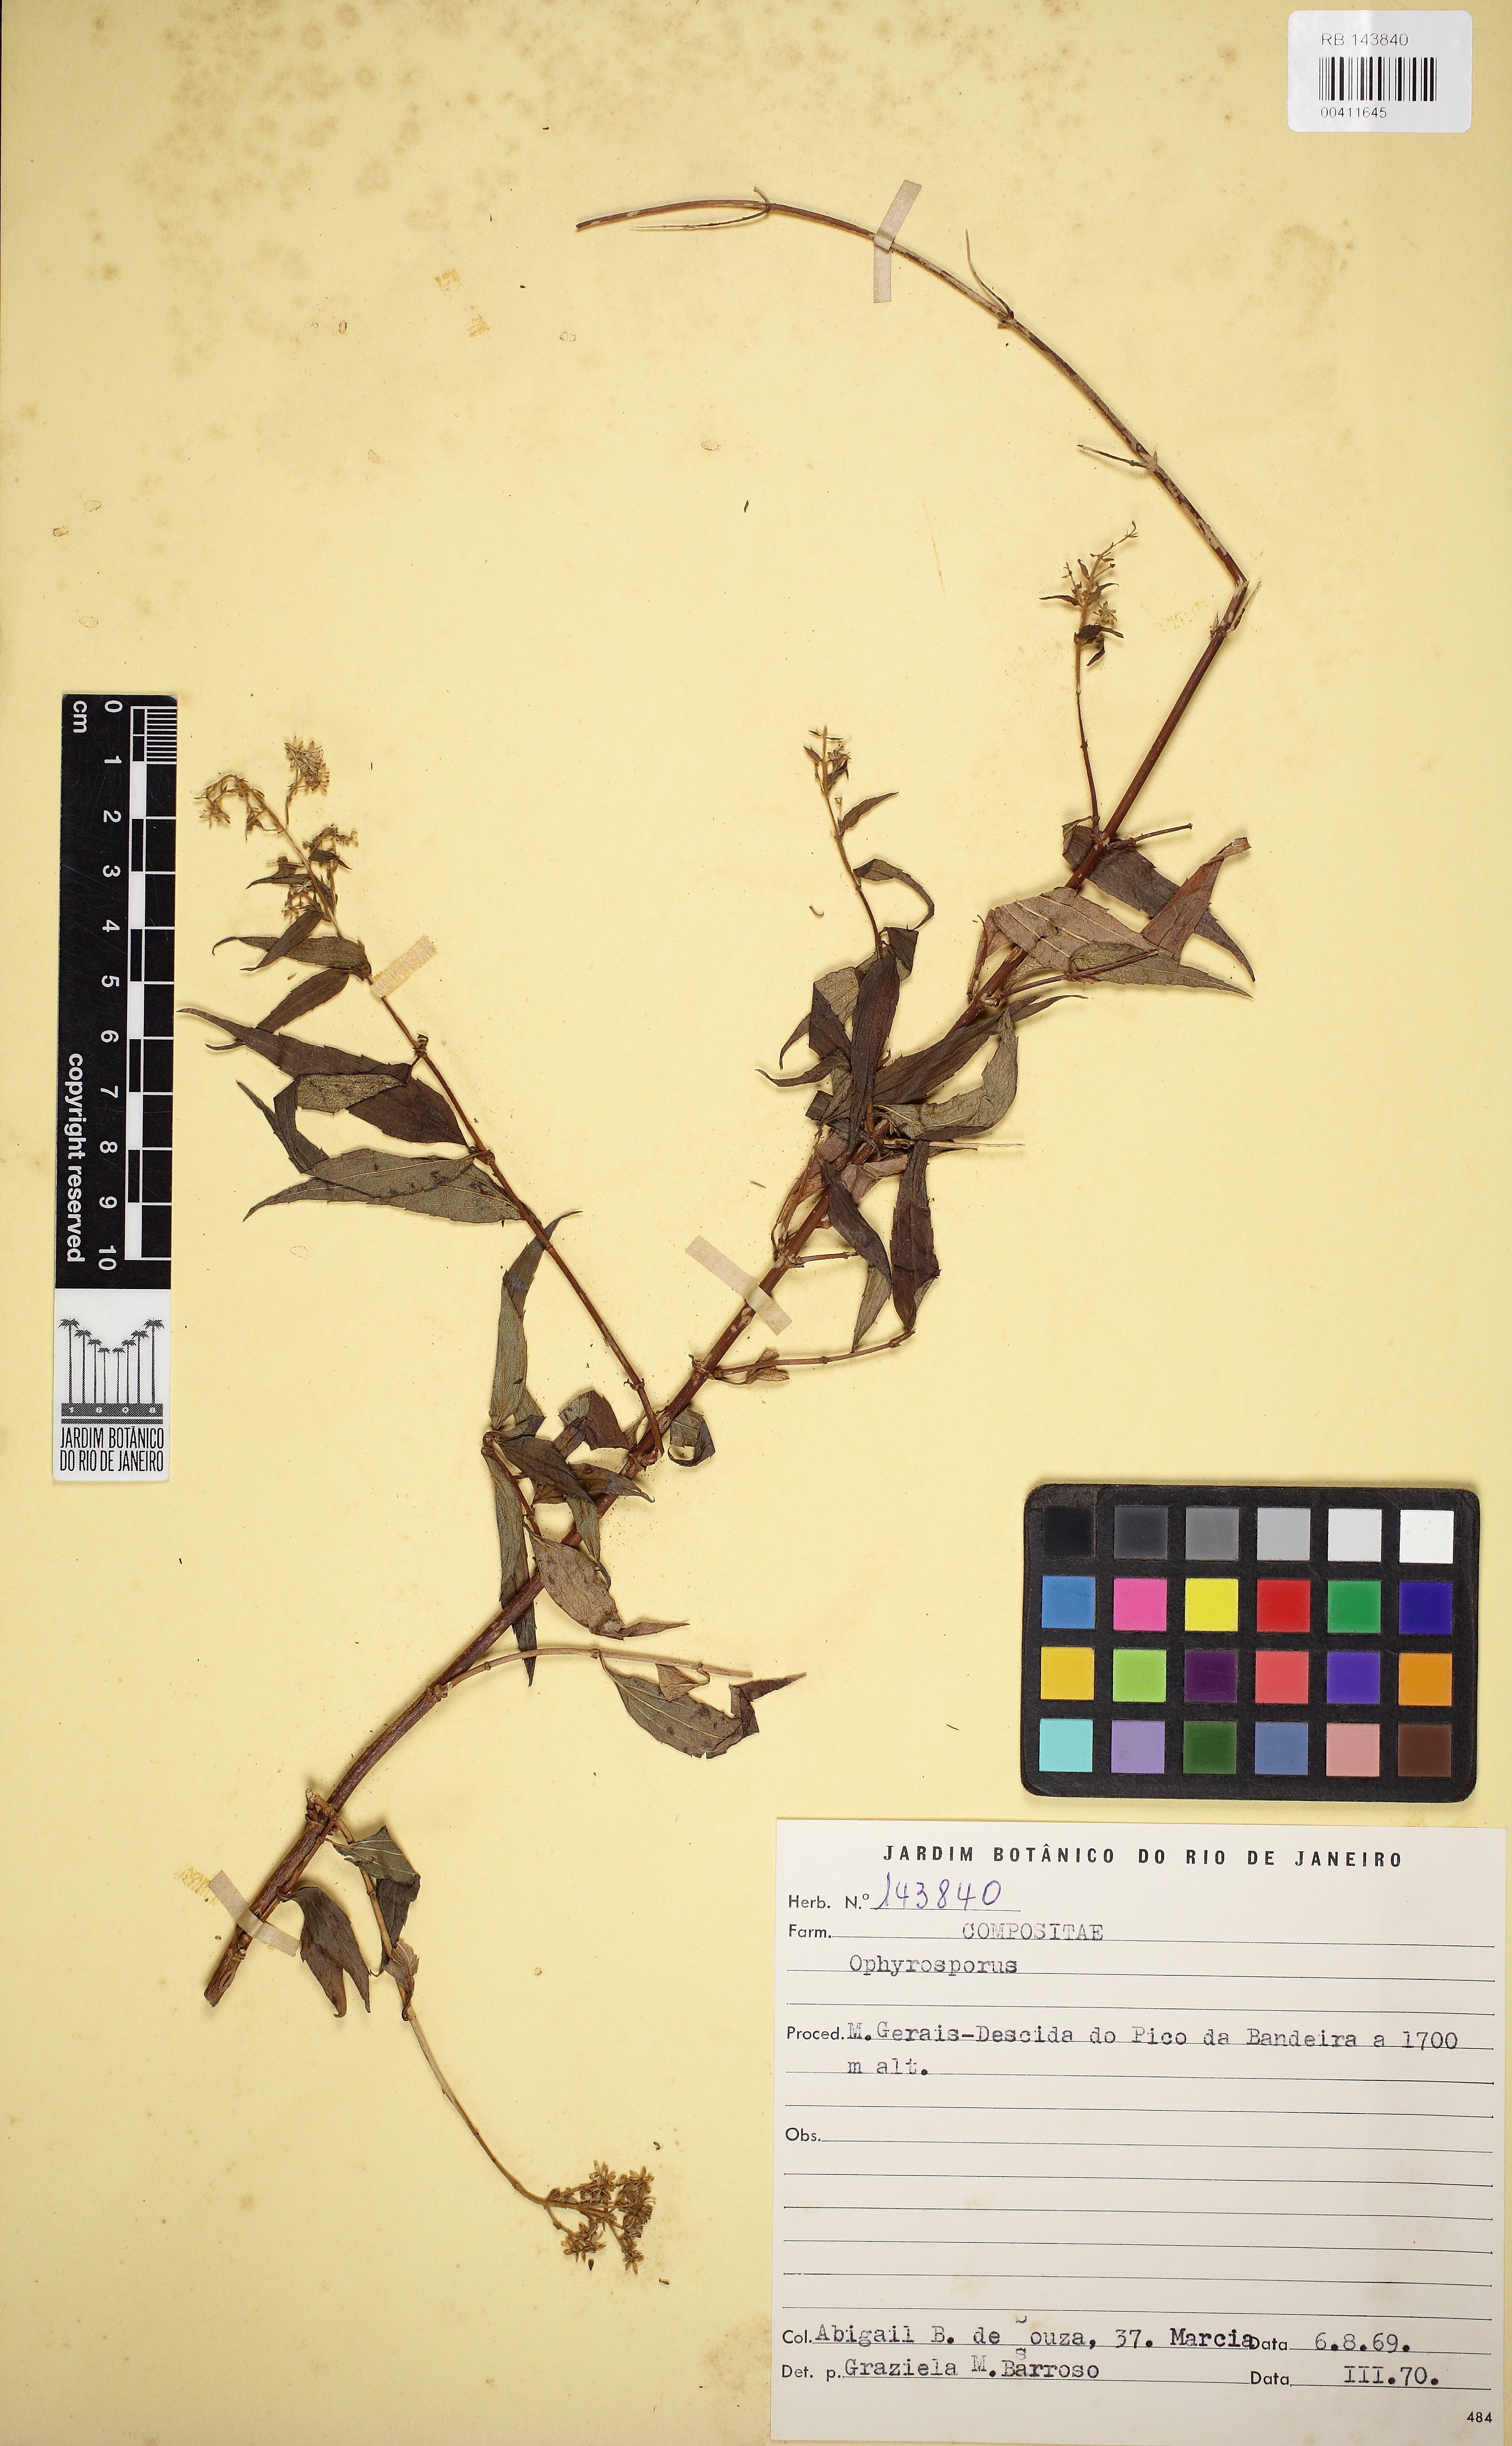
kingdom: Plantae
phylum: Tracheophyta
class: Magnoliopsida
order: Asterales
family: Asteraceae
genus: Ophryosporus
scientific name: Ophryosporus freyreysi
